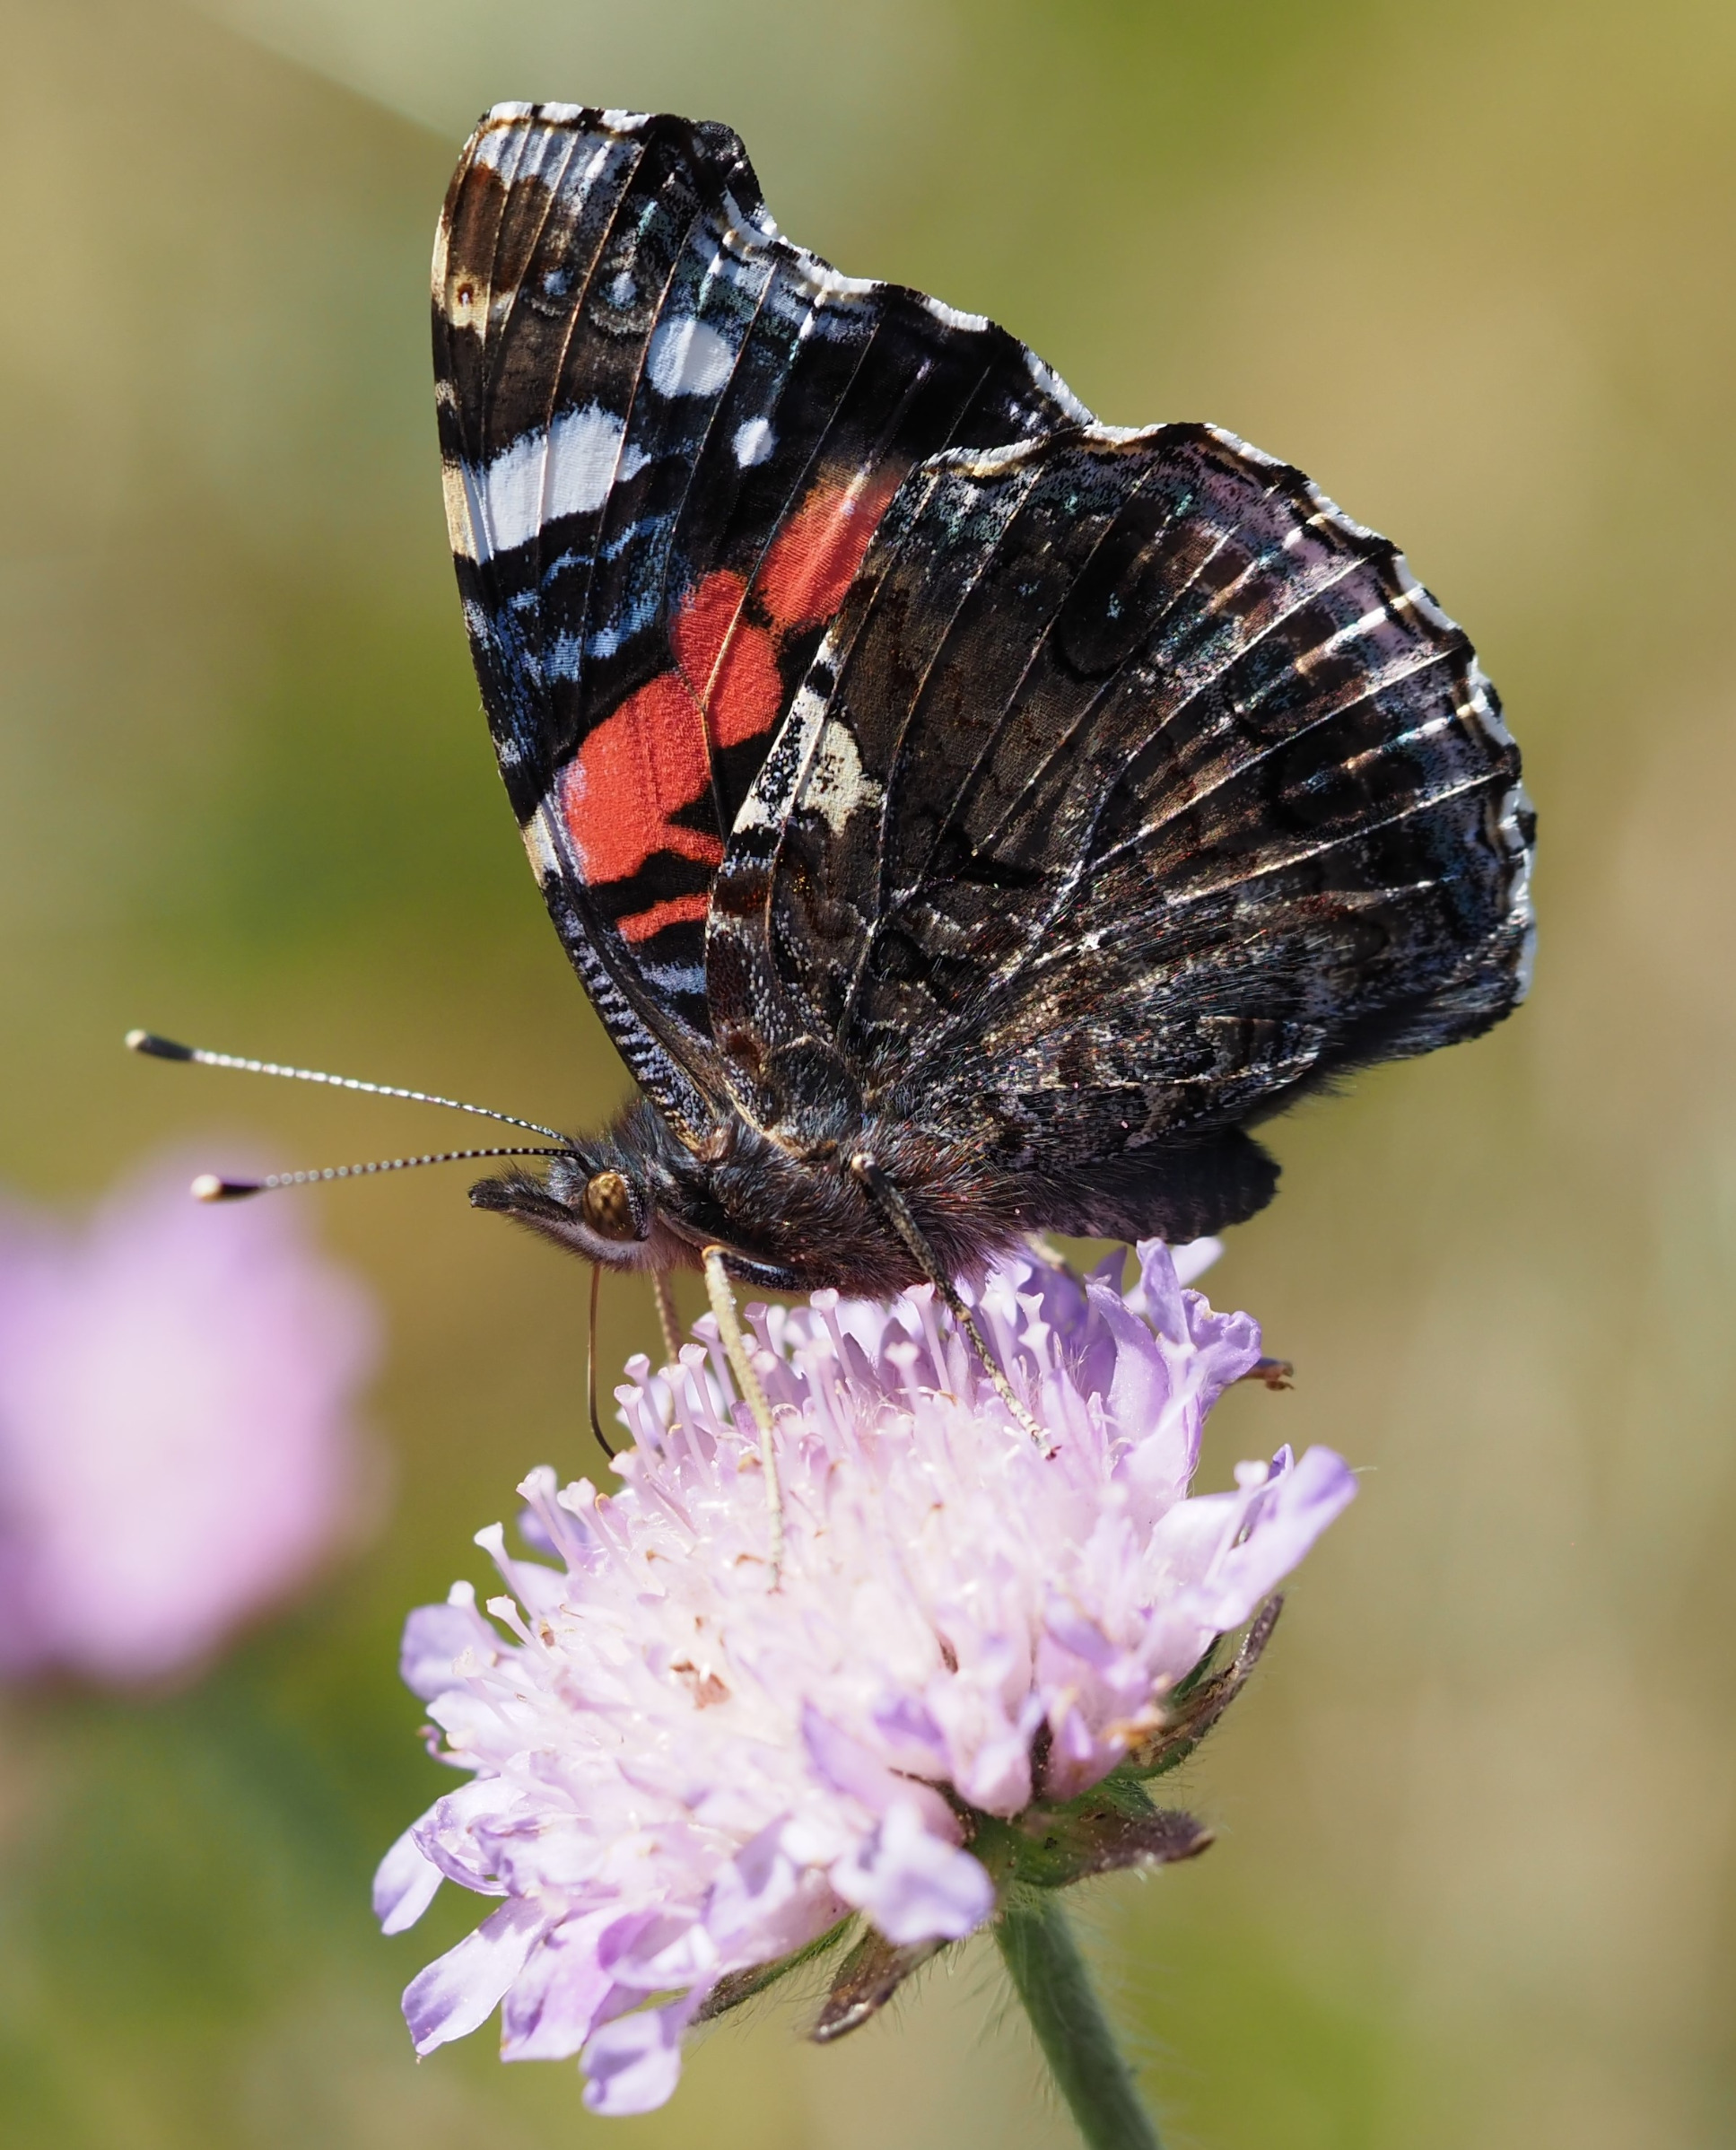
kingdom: Animalia
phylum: Arthropoda
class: Insecta
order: Lepidoptera
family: Nymphalidae
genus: Vanessa
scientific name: Vanessa atalanta
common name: Admiral
